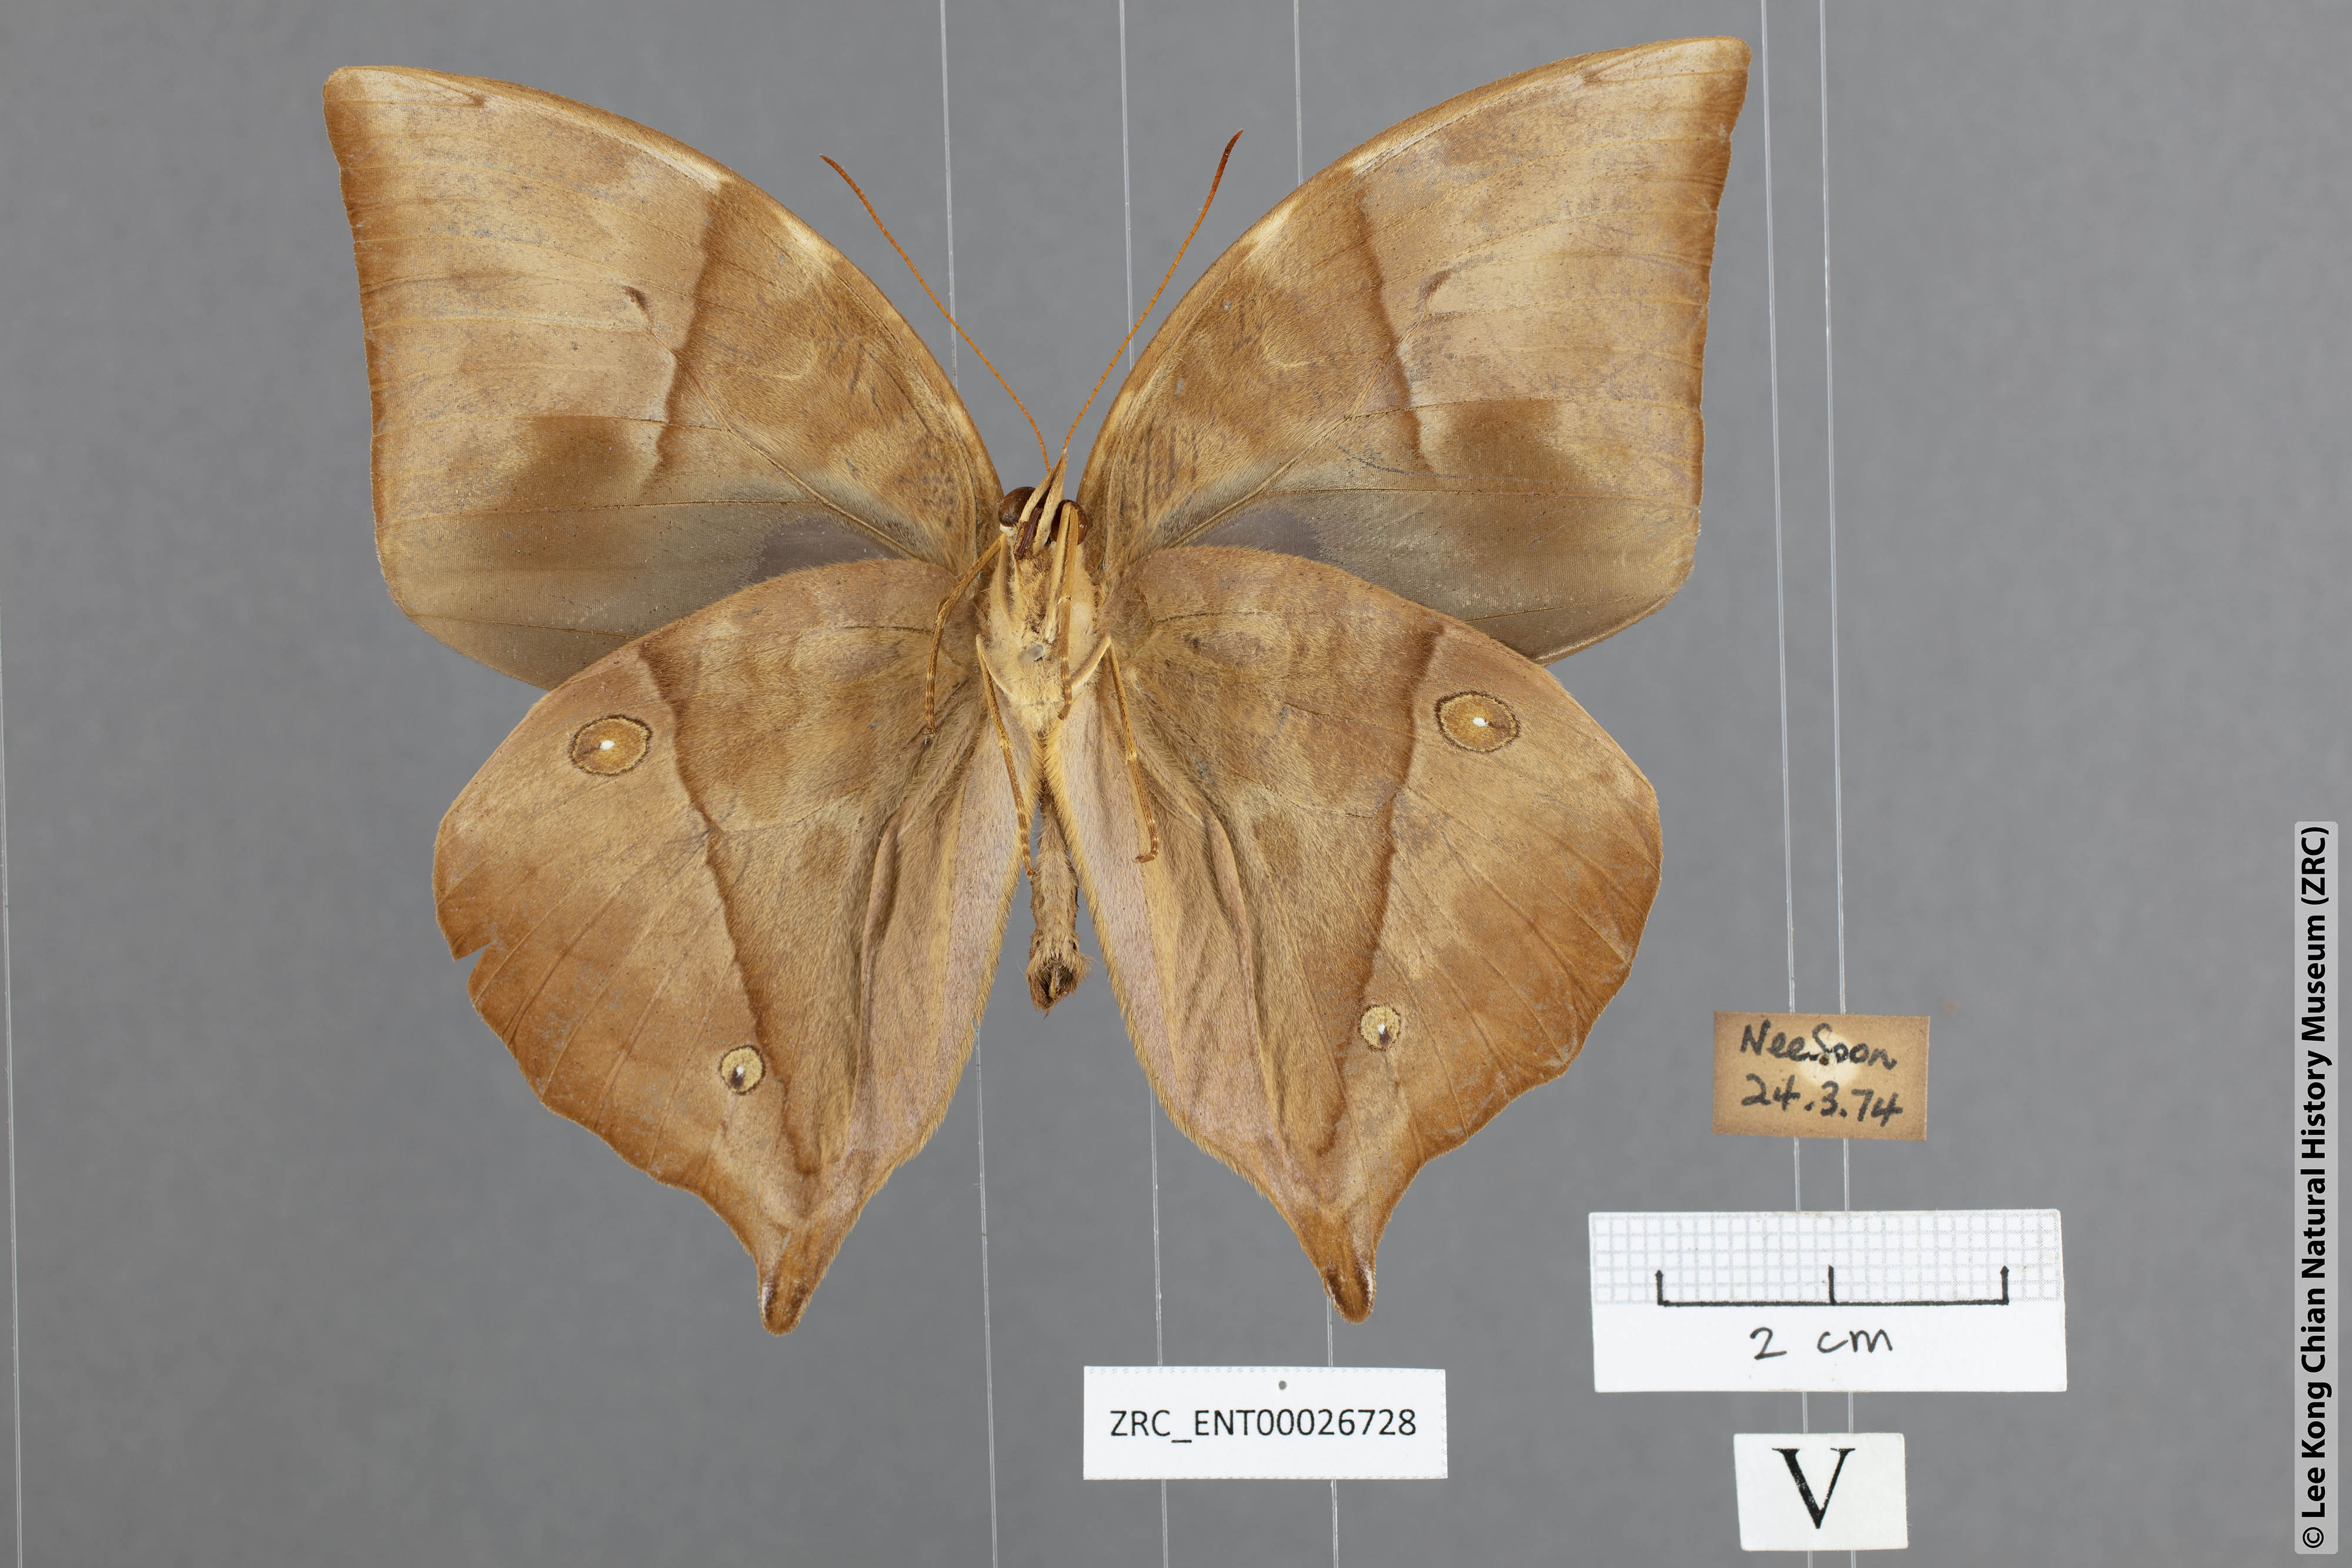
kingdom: Animalia
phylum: Arthropoda
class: Insecta
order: Lepidoptera
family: Nymphalidae
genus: Zeuxidia
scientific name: Zeuxidia doubledaii
